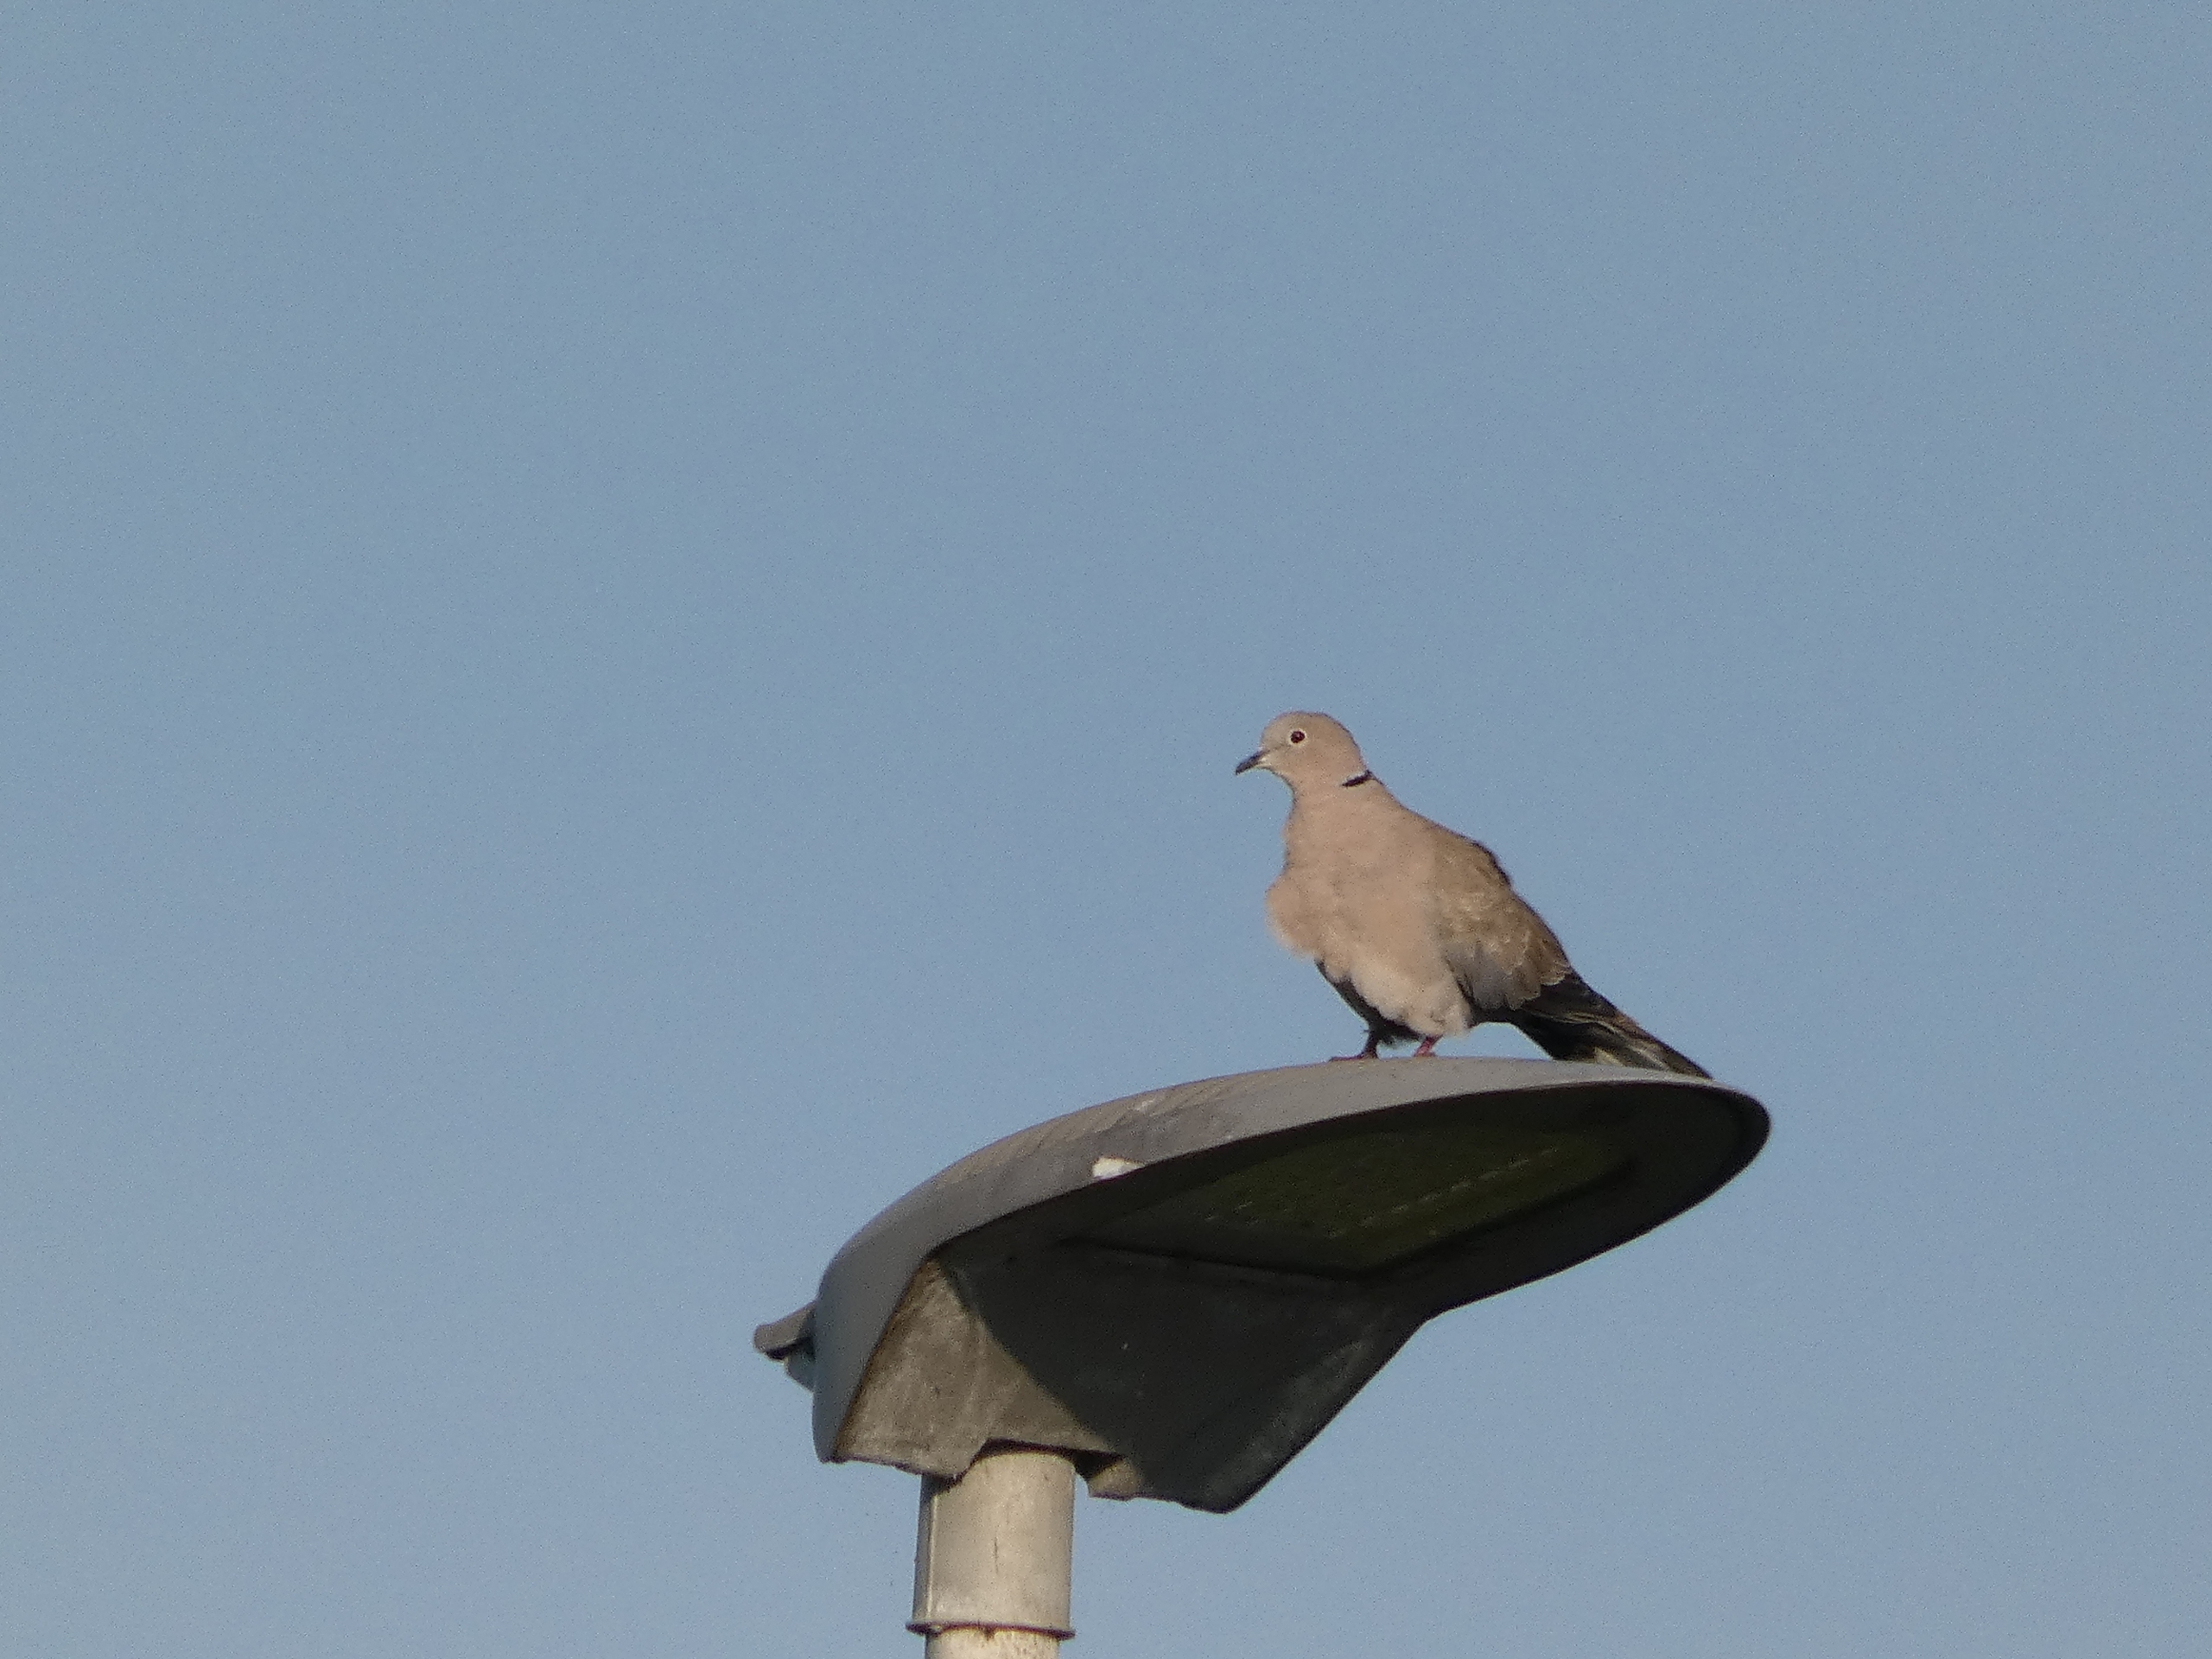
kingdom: Animalia
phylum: Chordata
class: Aves
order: Columbiformes
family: Columbidae
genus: Streptopelia
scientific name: Streptopelia decaocto
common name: Tyrkerdue
